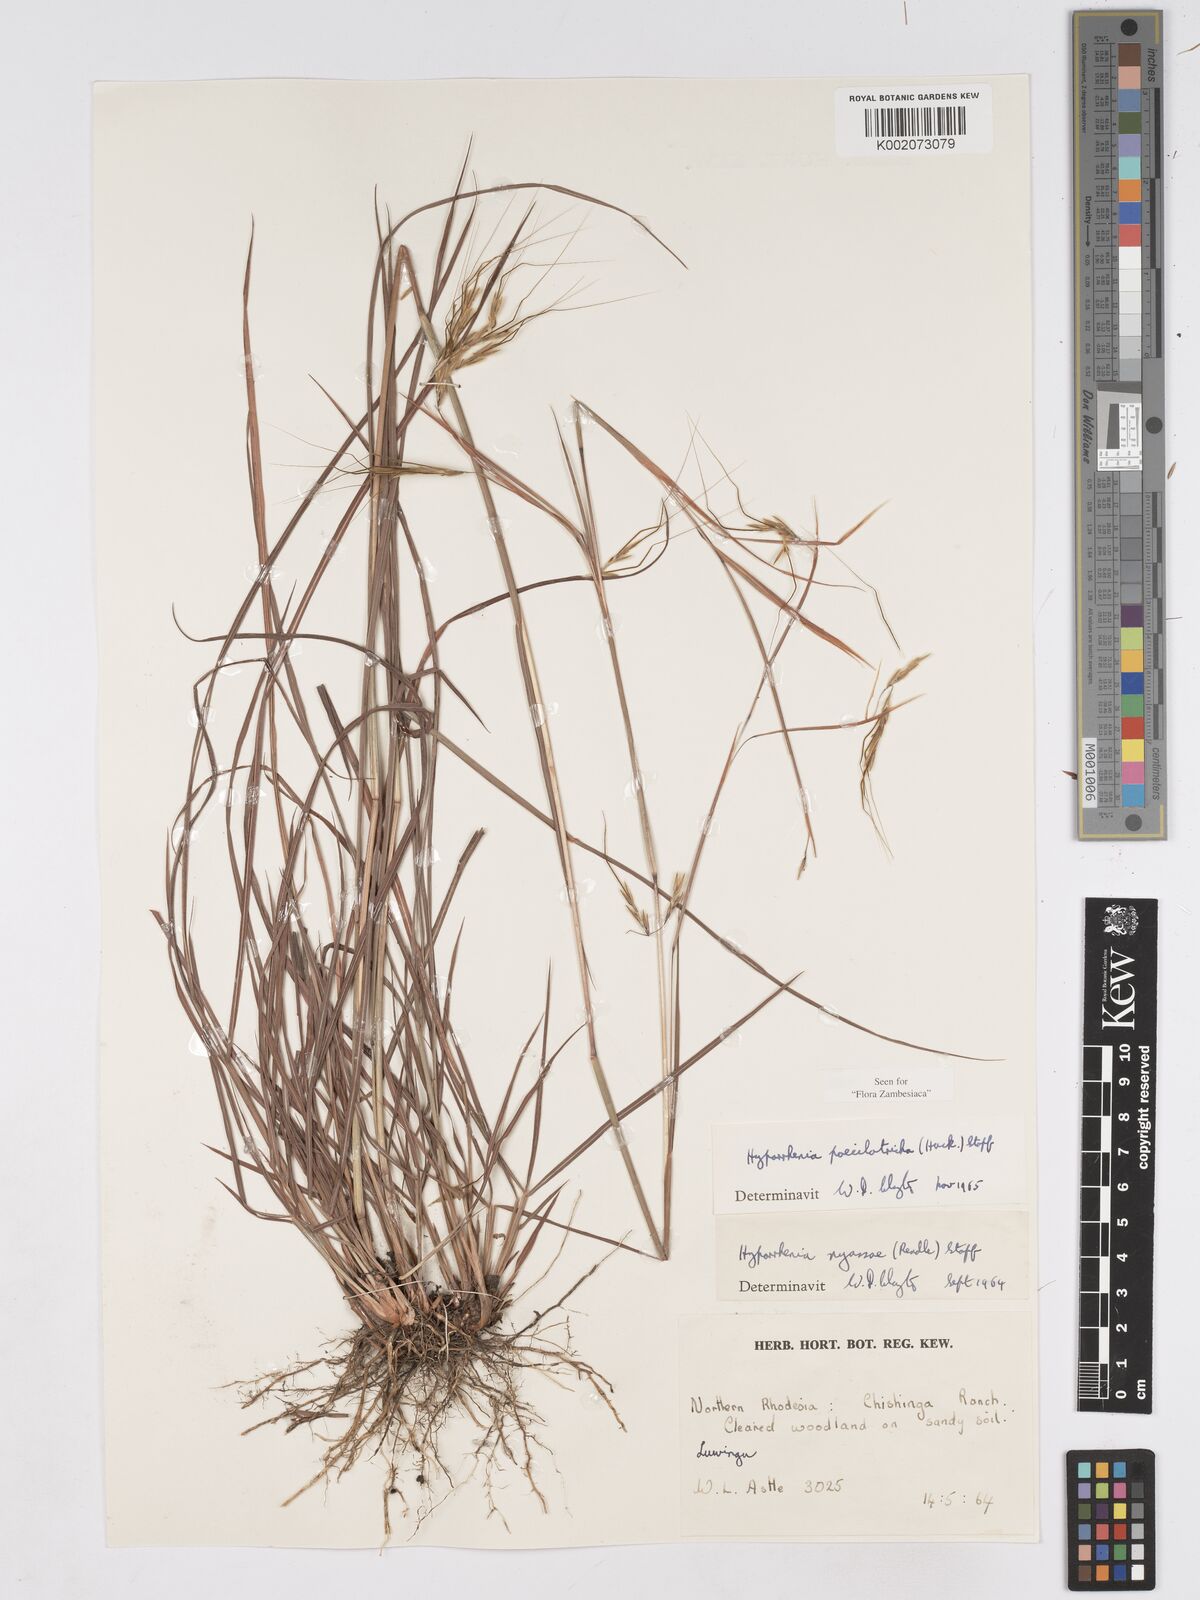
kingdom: Plantae
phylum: Tracheophyta
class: Liliopsida
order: Poales
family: Poaceae
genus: Hyparrhenia
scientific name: Hyparrhenia poecilotricha
